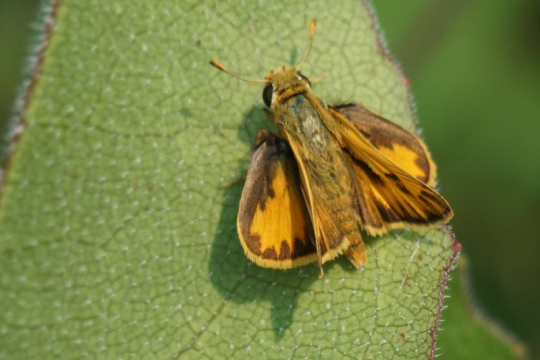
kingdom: Animalia
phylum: Arthropoda
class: Insecta
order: Lepidoptera
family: Hesperiidae
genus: Hylephila
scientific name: Hylephila phyleus
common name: Fiery Skipper
